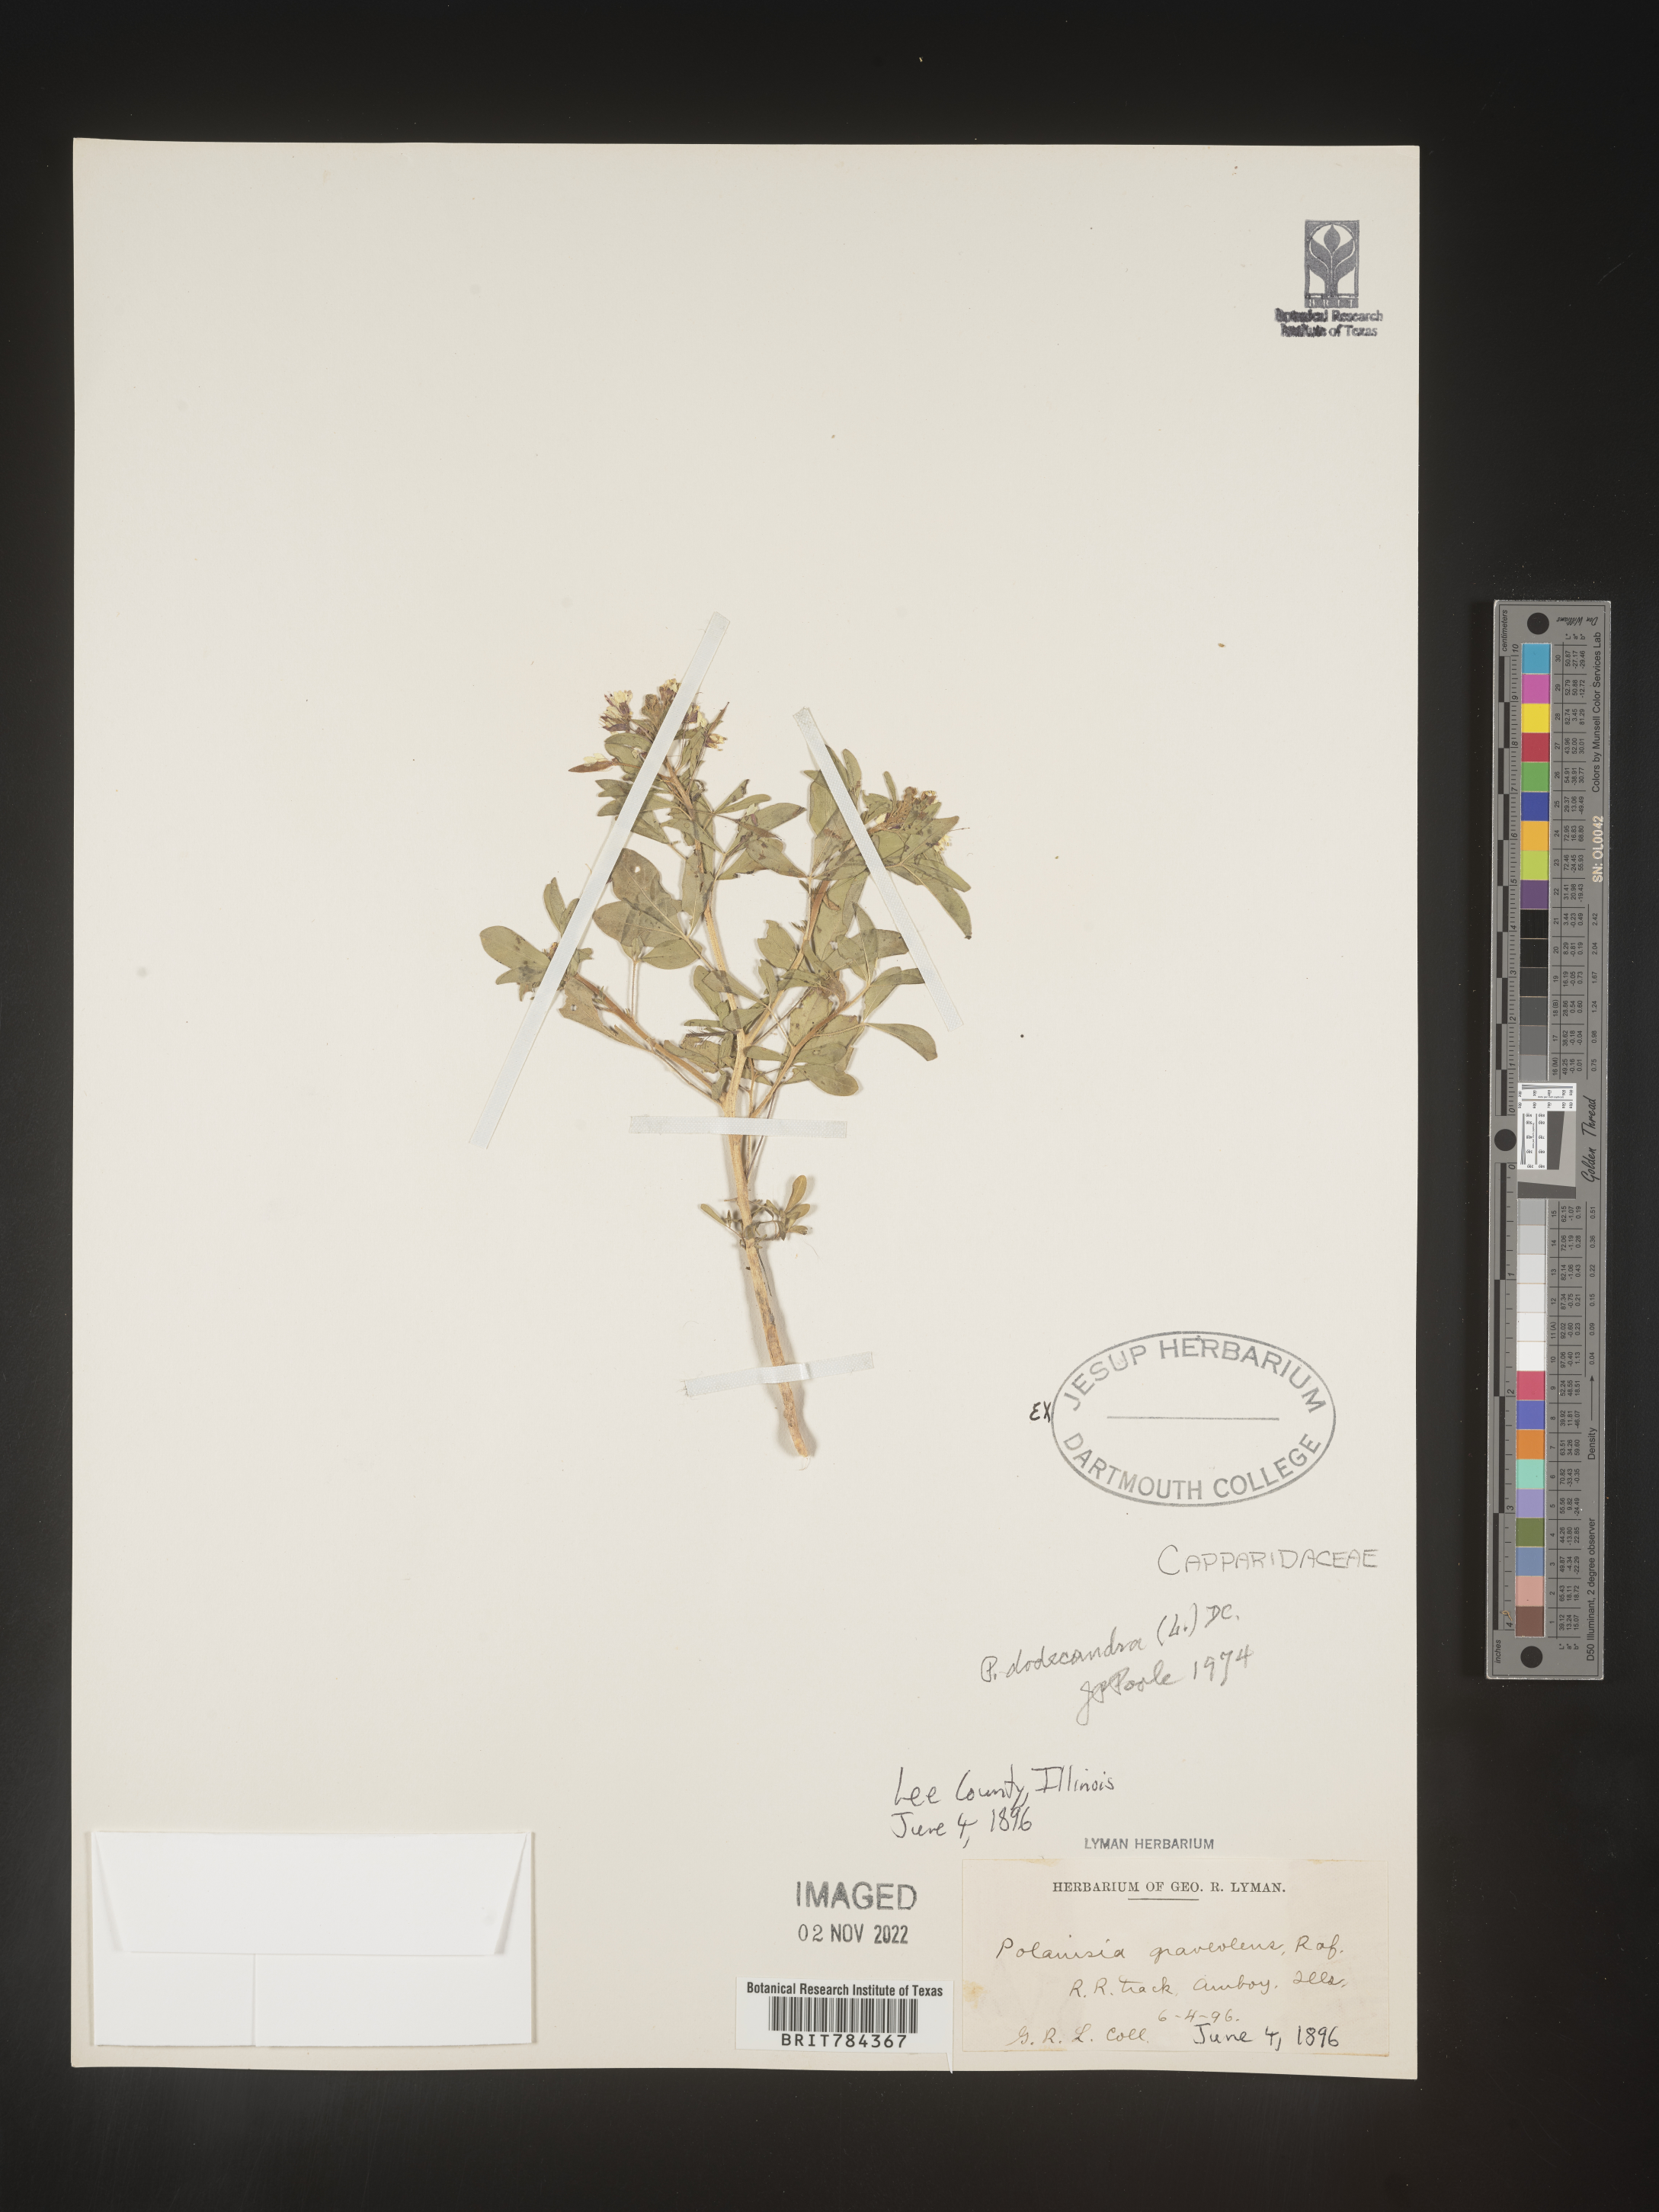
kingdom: Plantae
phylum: Tracheophyta
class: Magnoliopsida
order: Brassicales
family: Cleomaceae
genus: Polanisia
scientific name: Polanisia dodecandra
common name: Clammyweed
